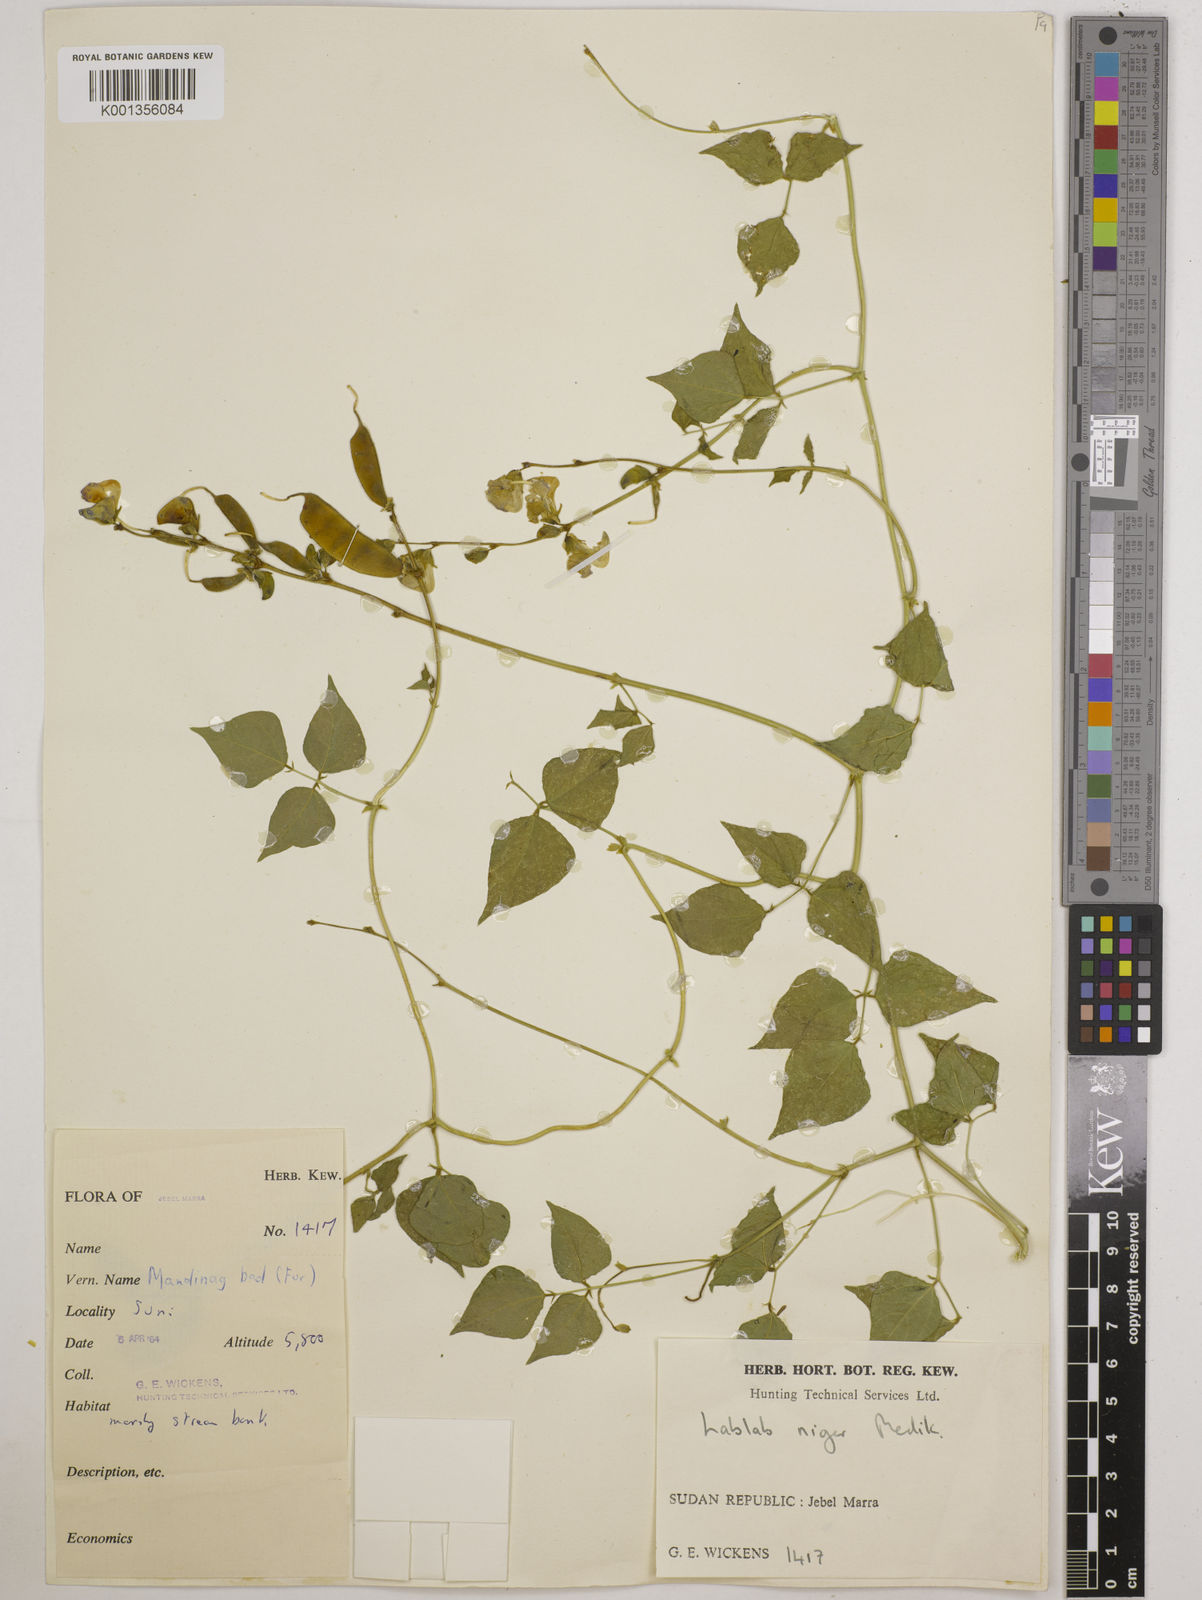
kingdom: Plantae
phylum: Tracheophyta
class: Magnoliopsida
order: Fabales
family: Fabaceae
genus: Lablab
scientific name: Lablab purpureus
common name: Lablab-bean
